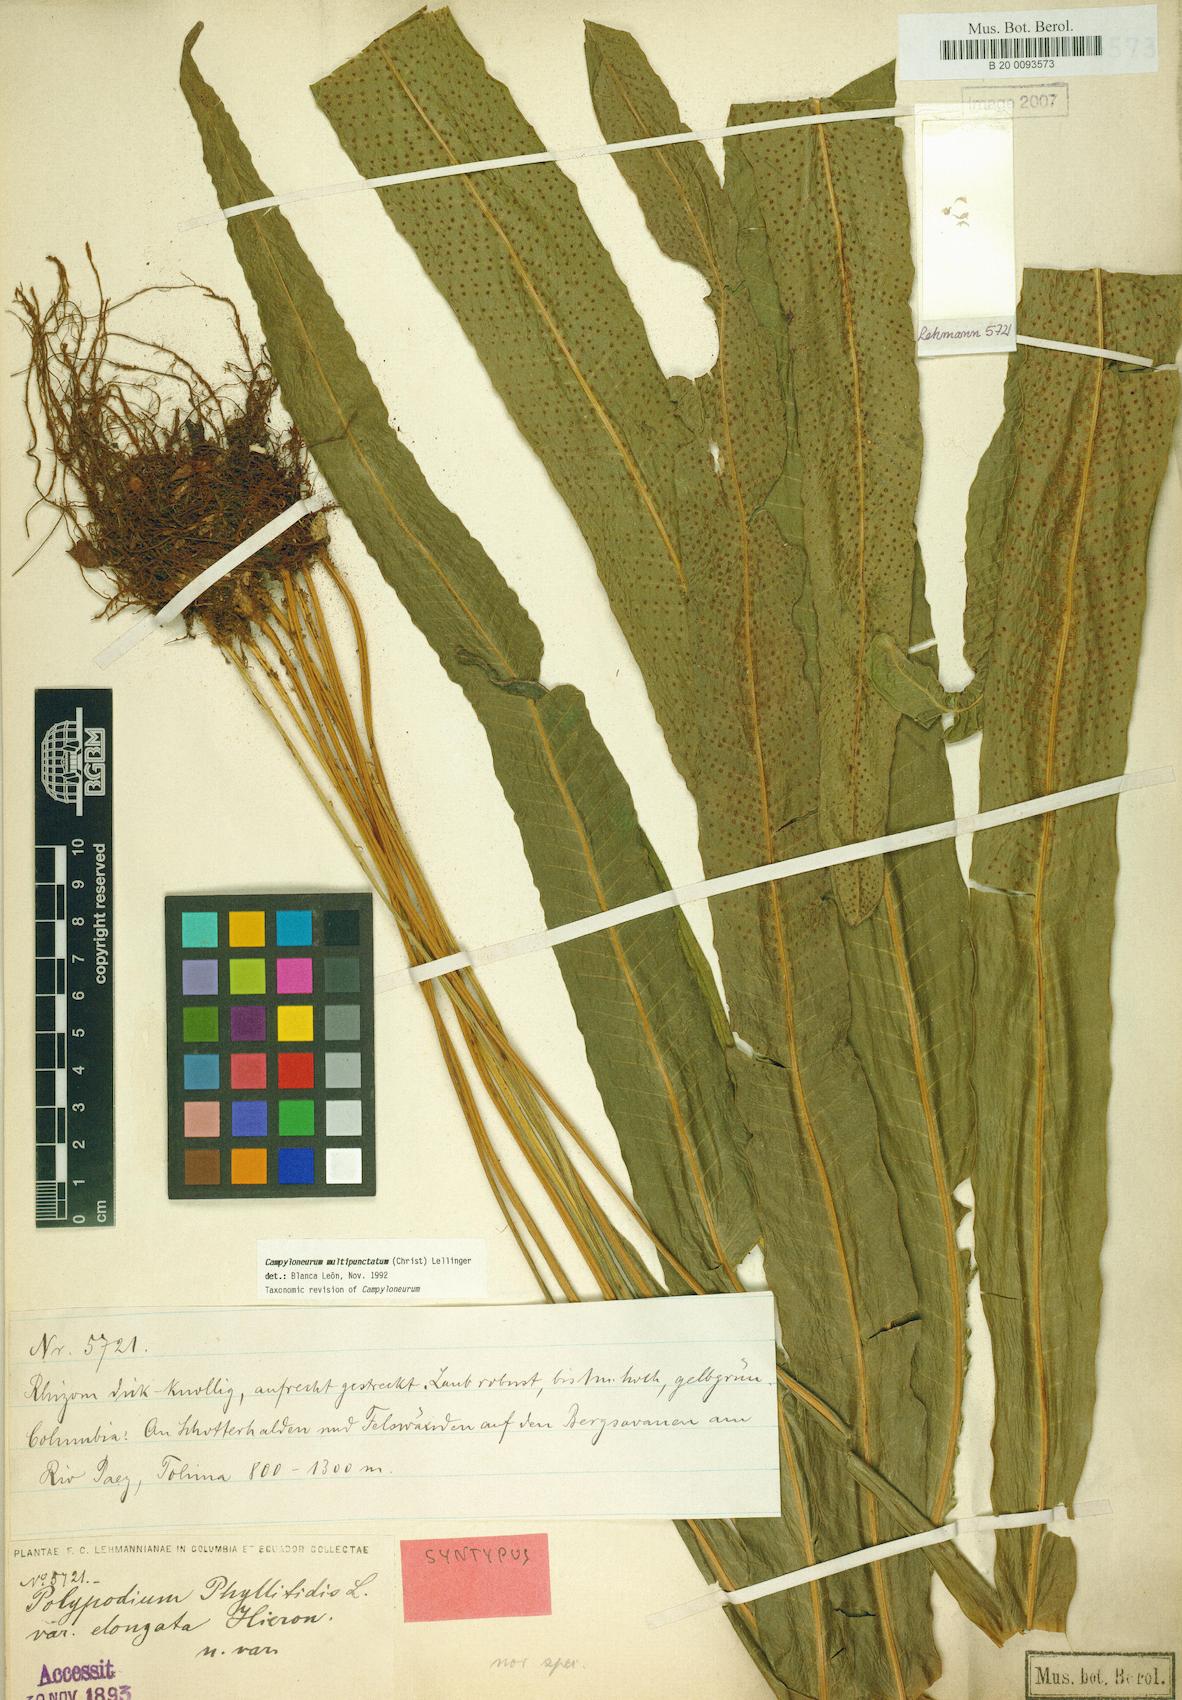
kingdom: Plantae
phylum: Tracheophyta
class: Polypodiopsida
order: Polypodiales
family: Polypodiaceae
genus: Campyloneurum
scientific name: Campyloneurum xalapense
